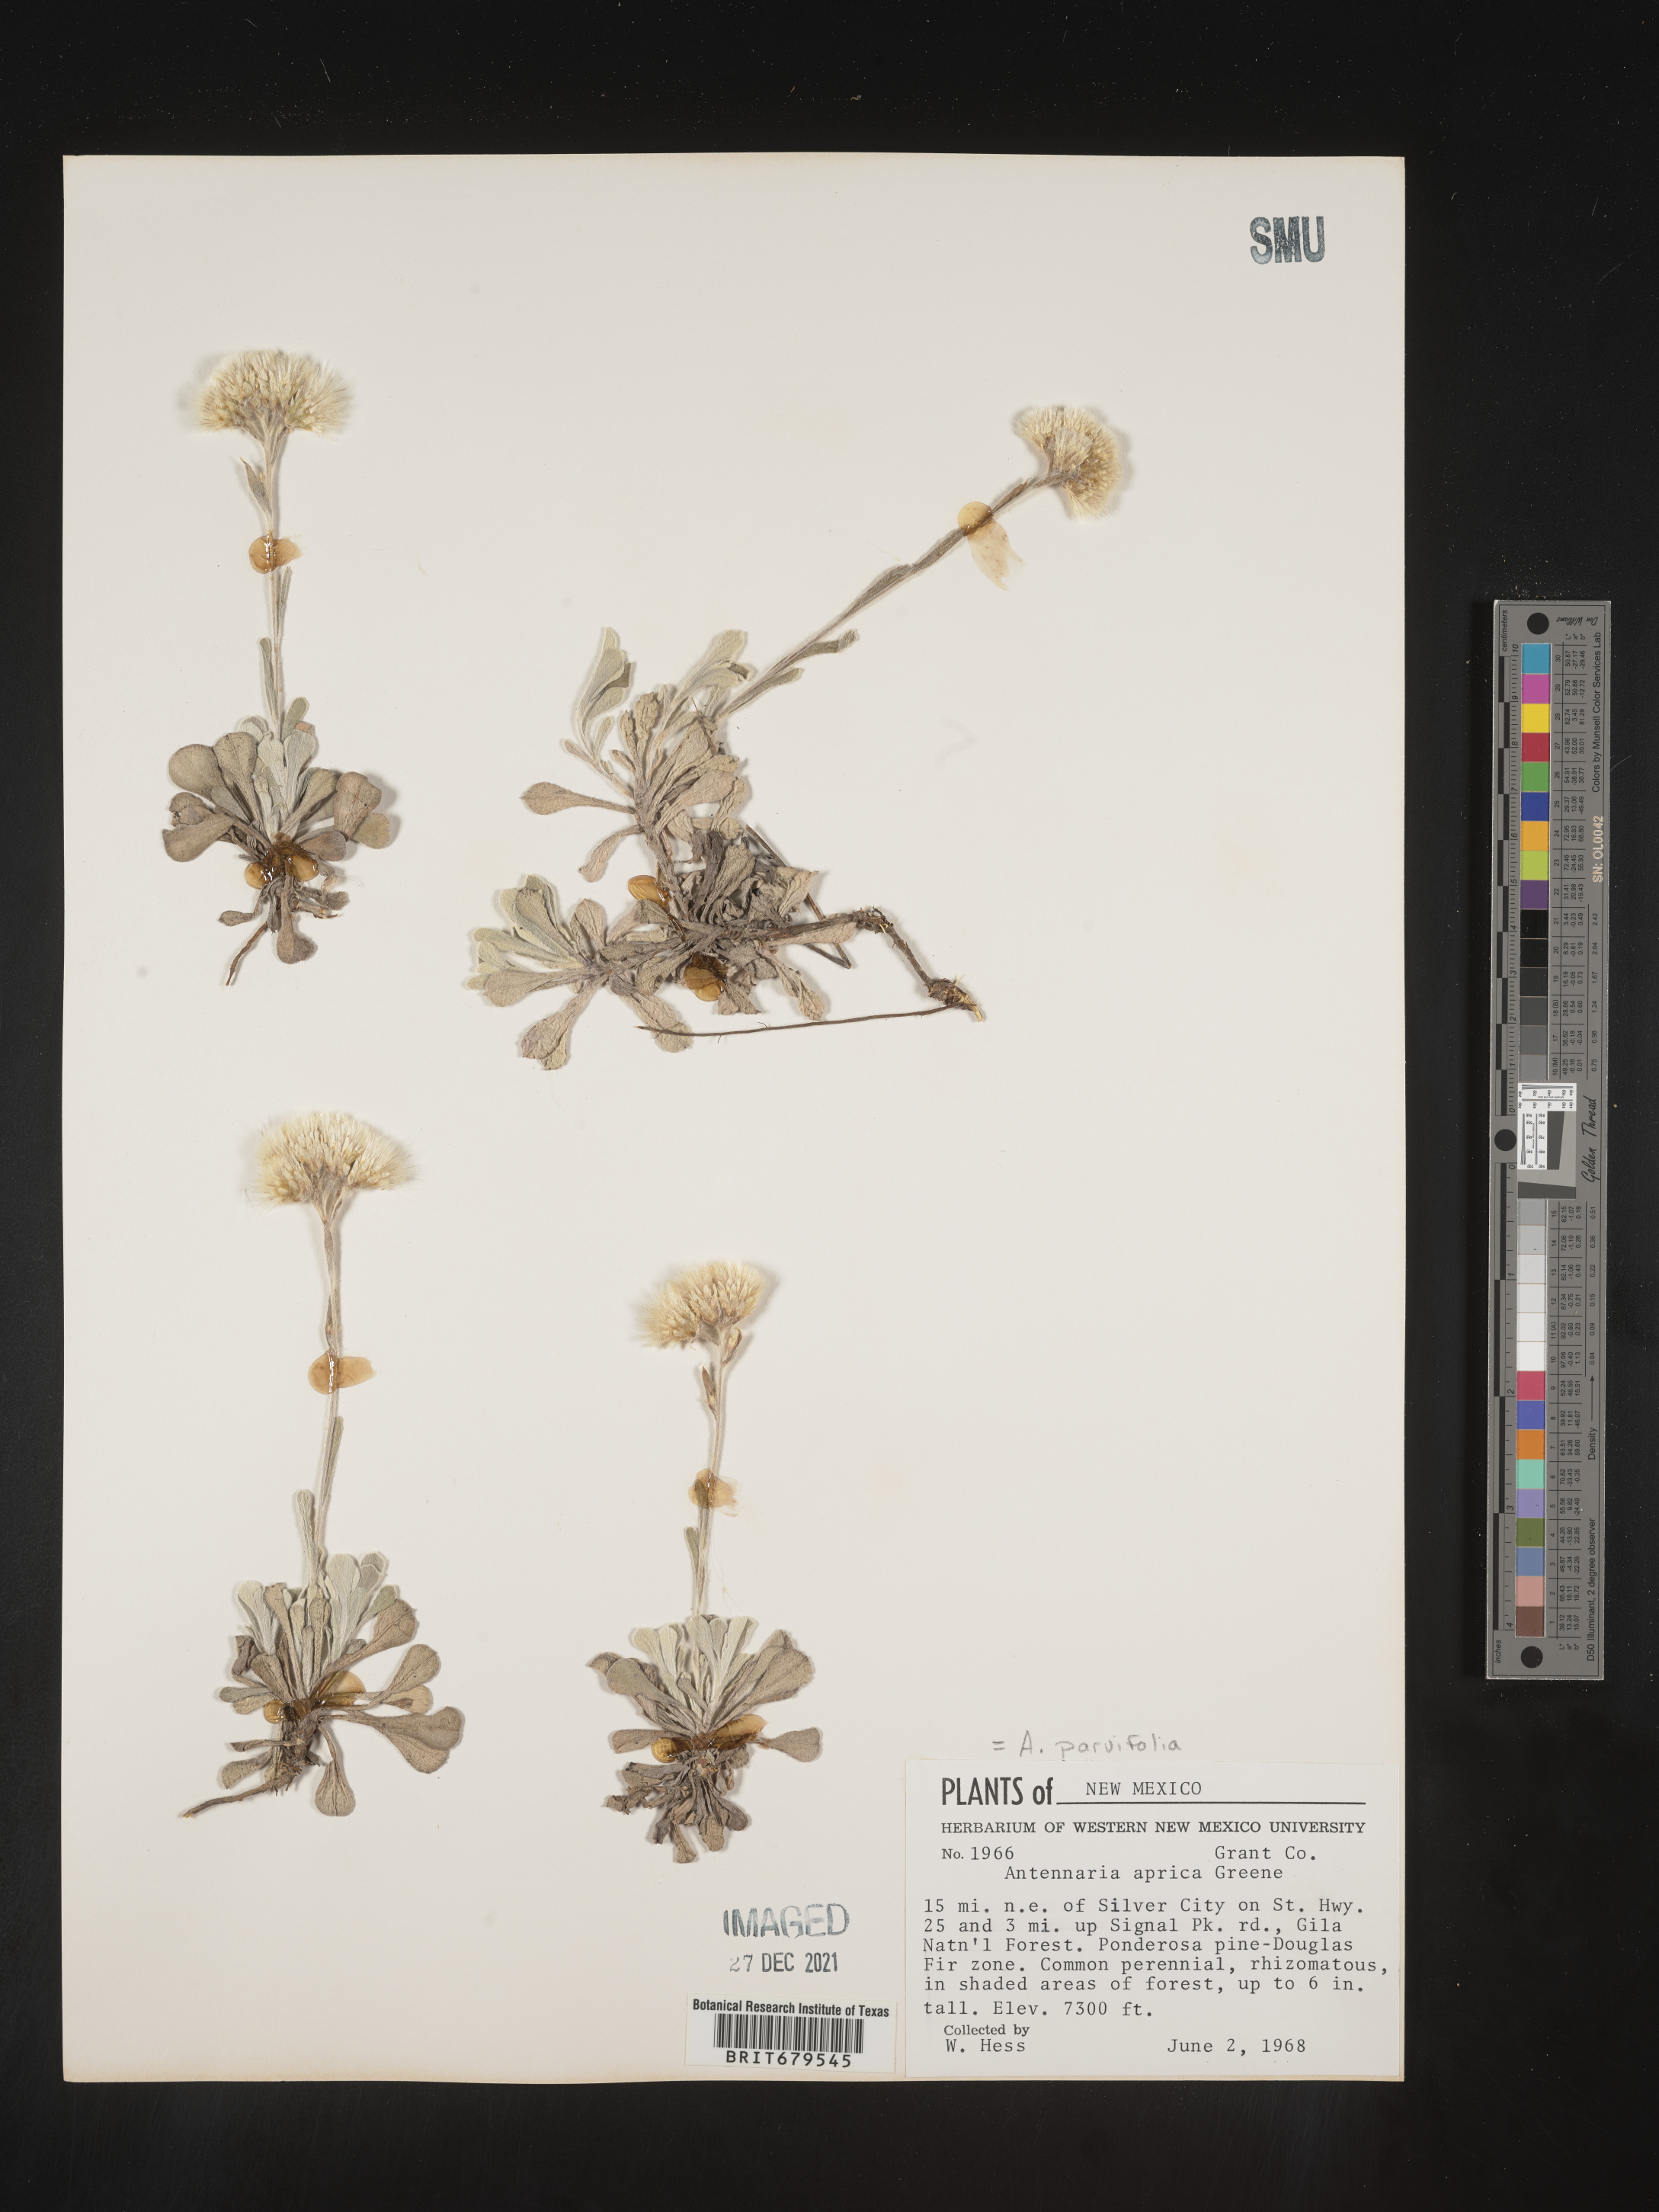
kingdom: Plantae
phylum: Tracheophyta
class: Magnoliopsida
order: Asterales
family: Asteraceae
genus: Antennaria
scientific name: Antennaria parvifolia
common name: Nuttall's pussytoes
